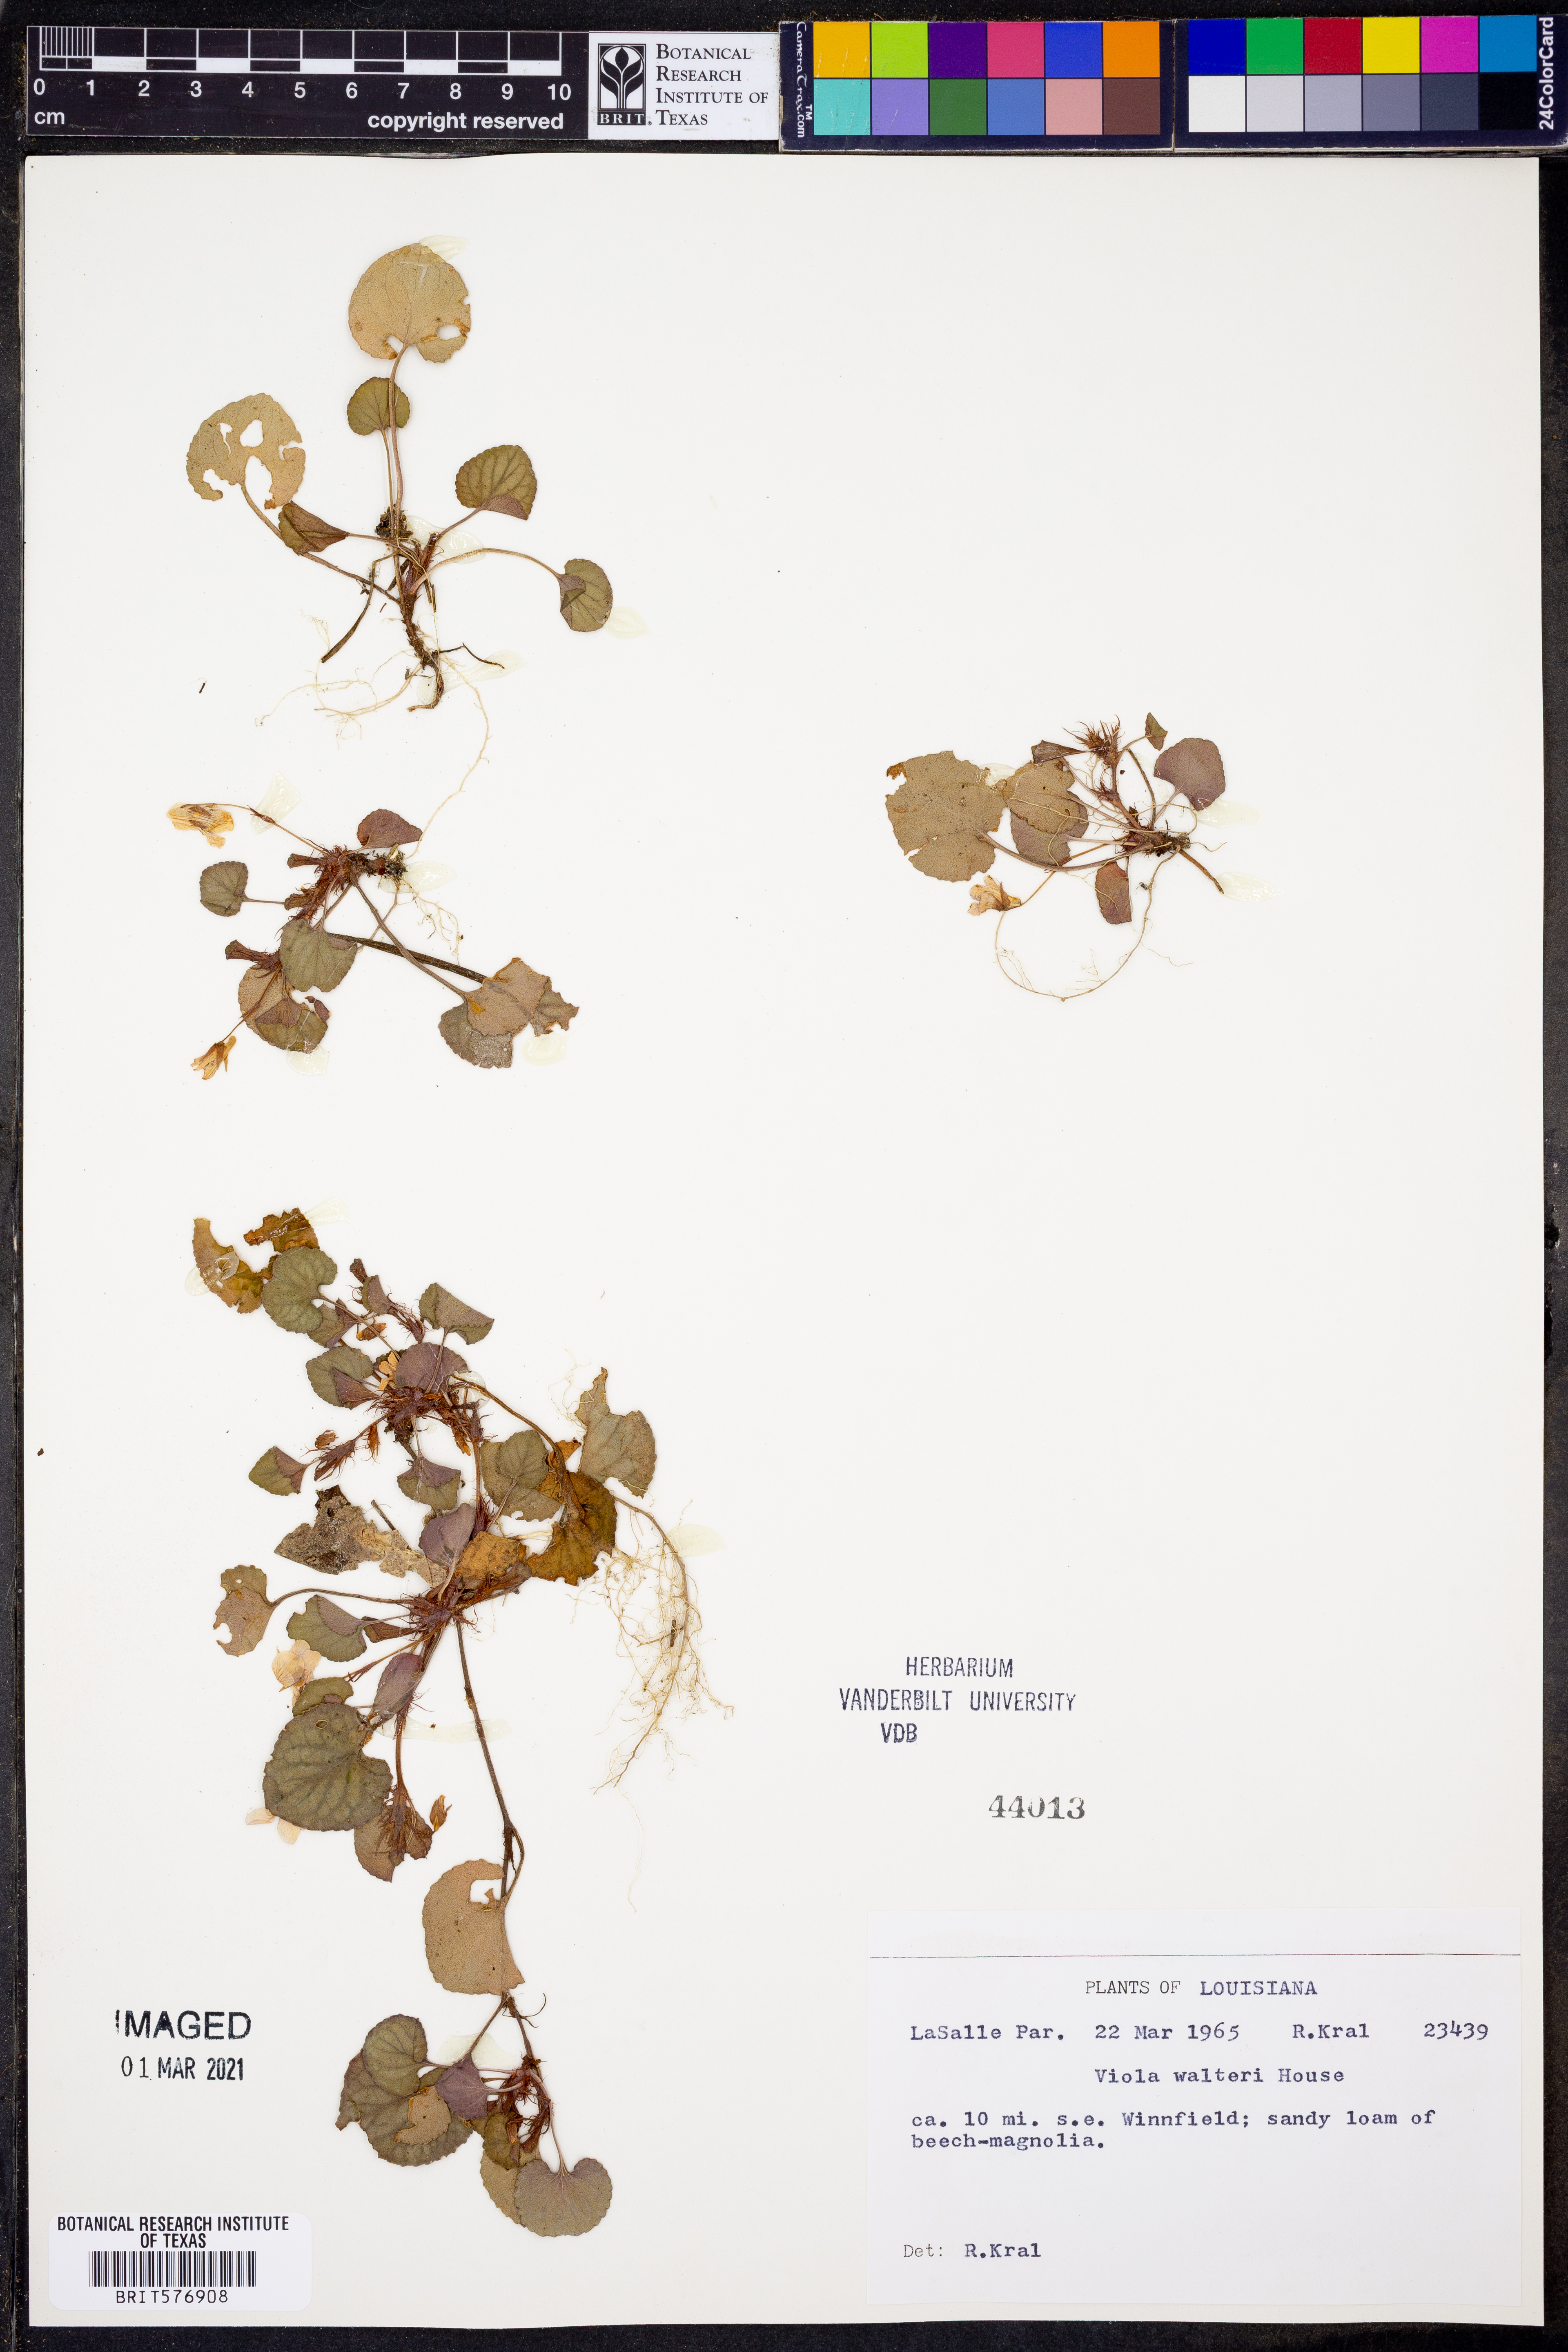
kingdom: Plantae
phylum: Tracheophyta
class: Magnoliopsida
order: Malpighiales
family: Violaceae
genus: Viola
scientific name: Viola walteri
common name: Prostrate southern violet
